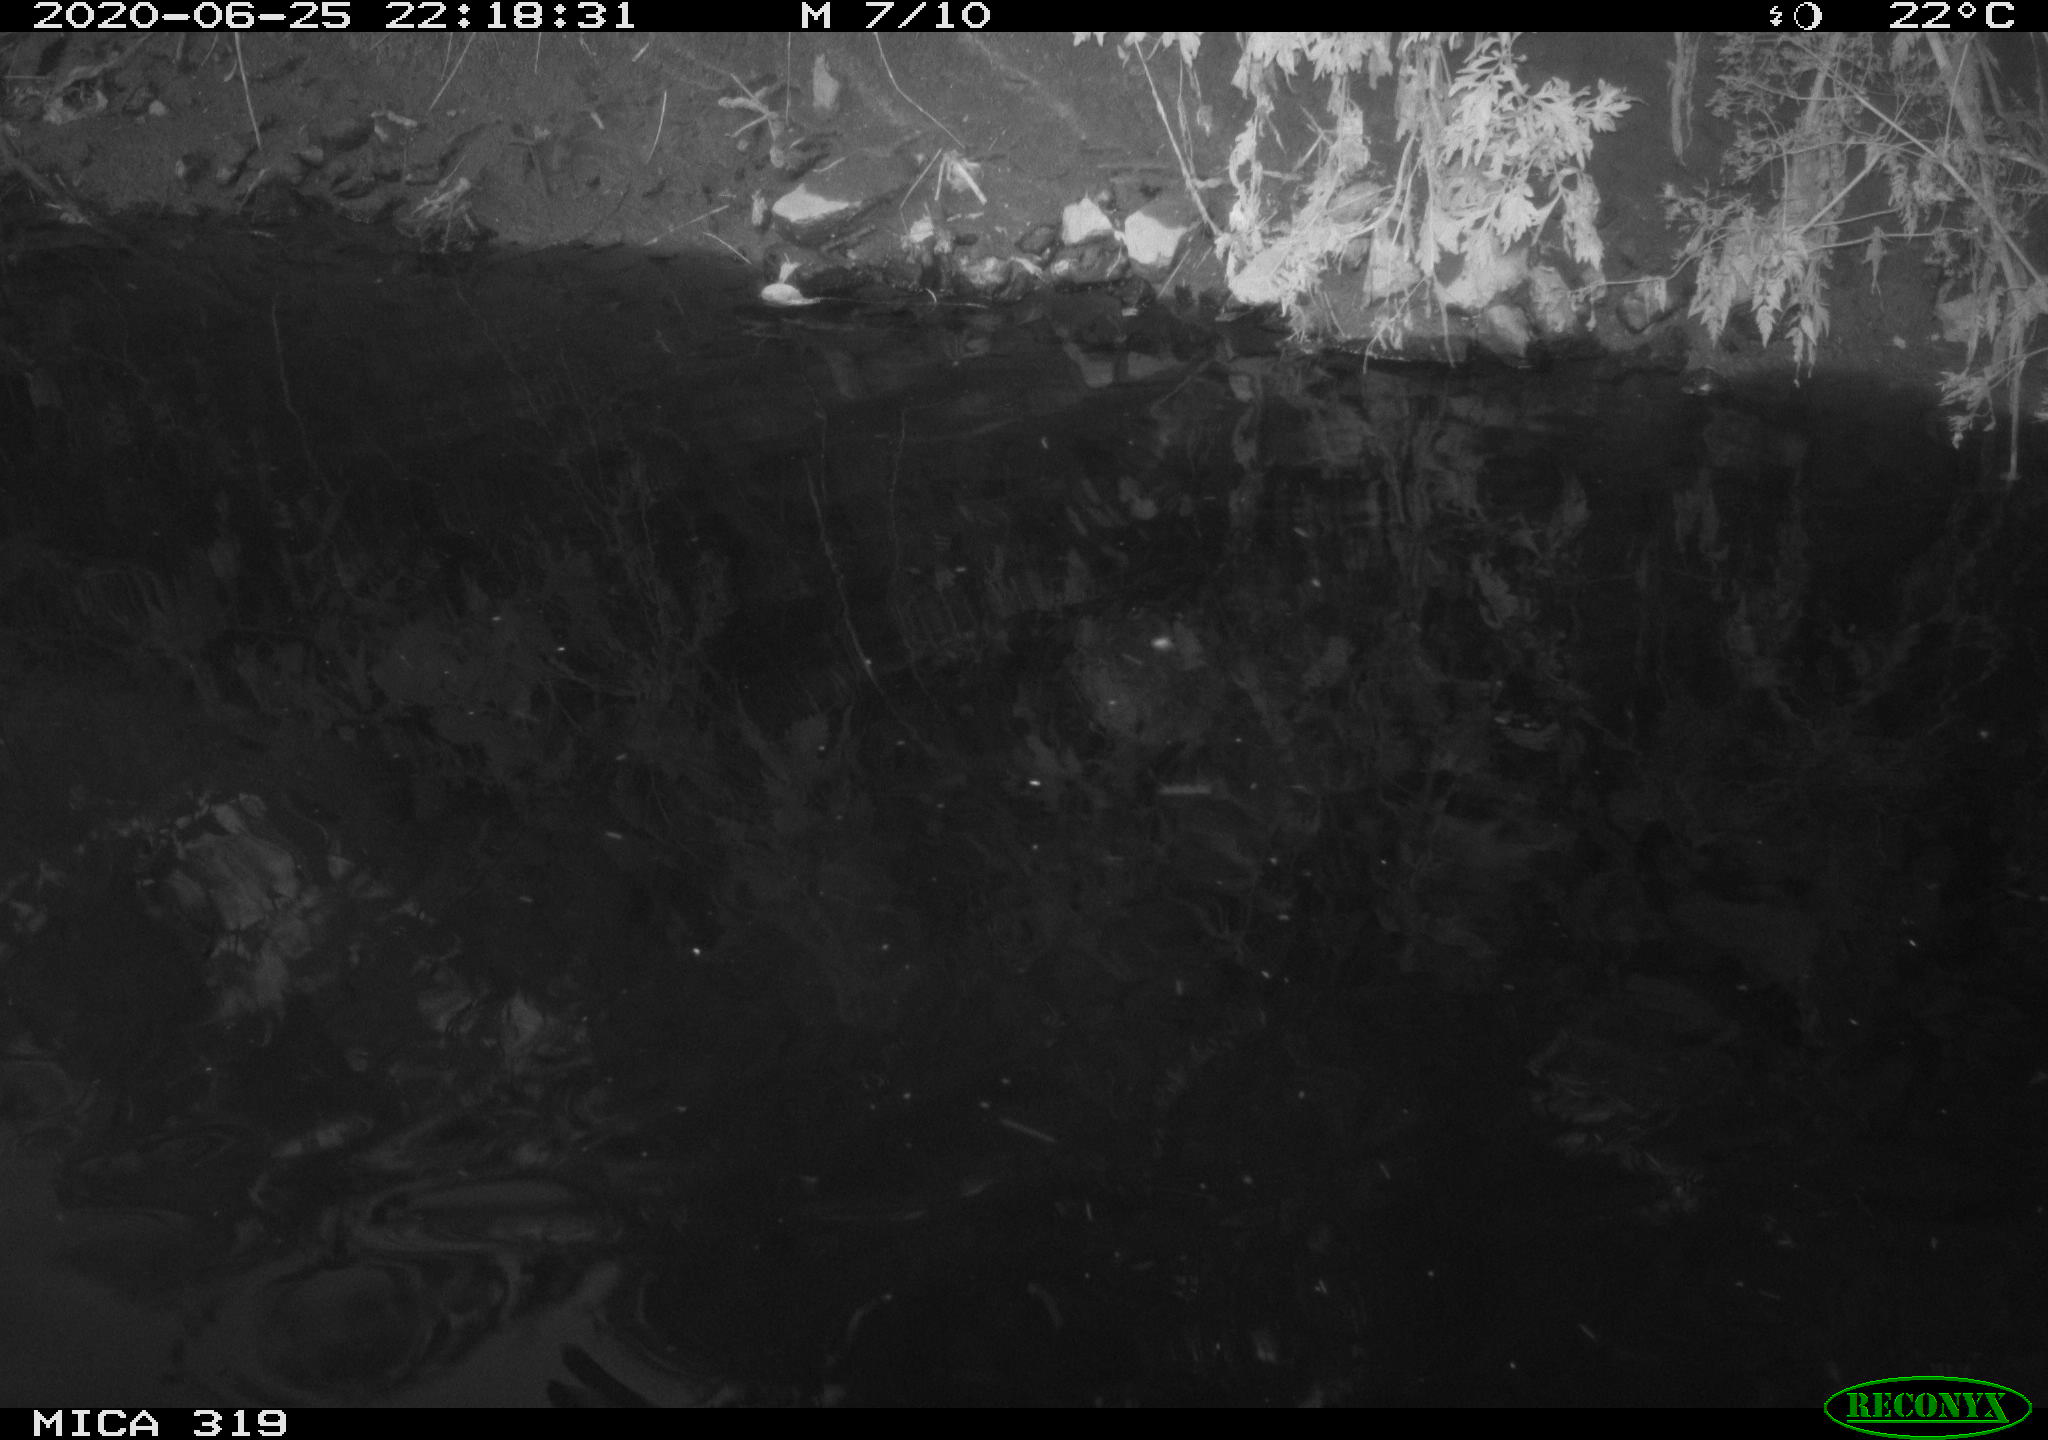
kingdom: Animalia
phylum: Chordata
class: Aves
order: Anseriformes
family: Anatidae
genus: Anas
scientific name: Anas platyrhynchos
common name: Mallard
